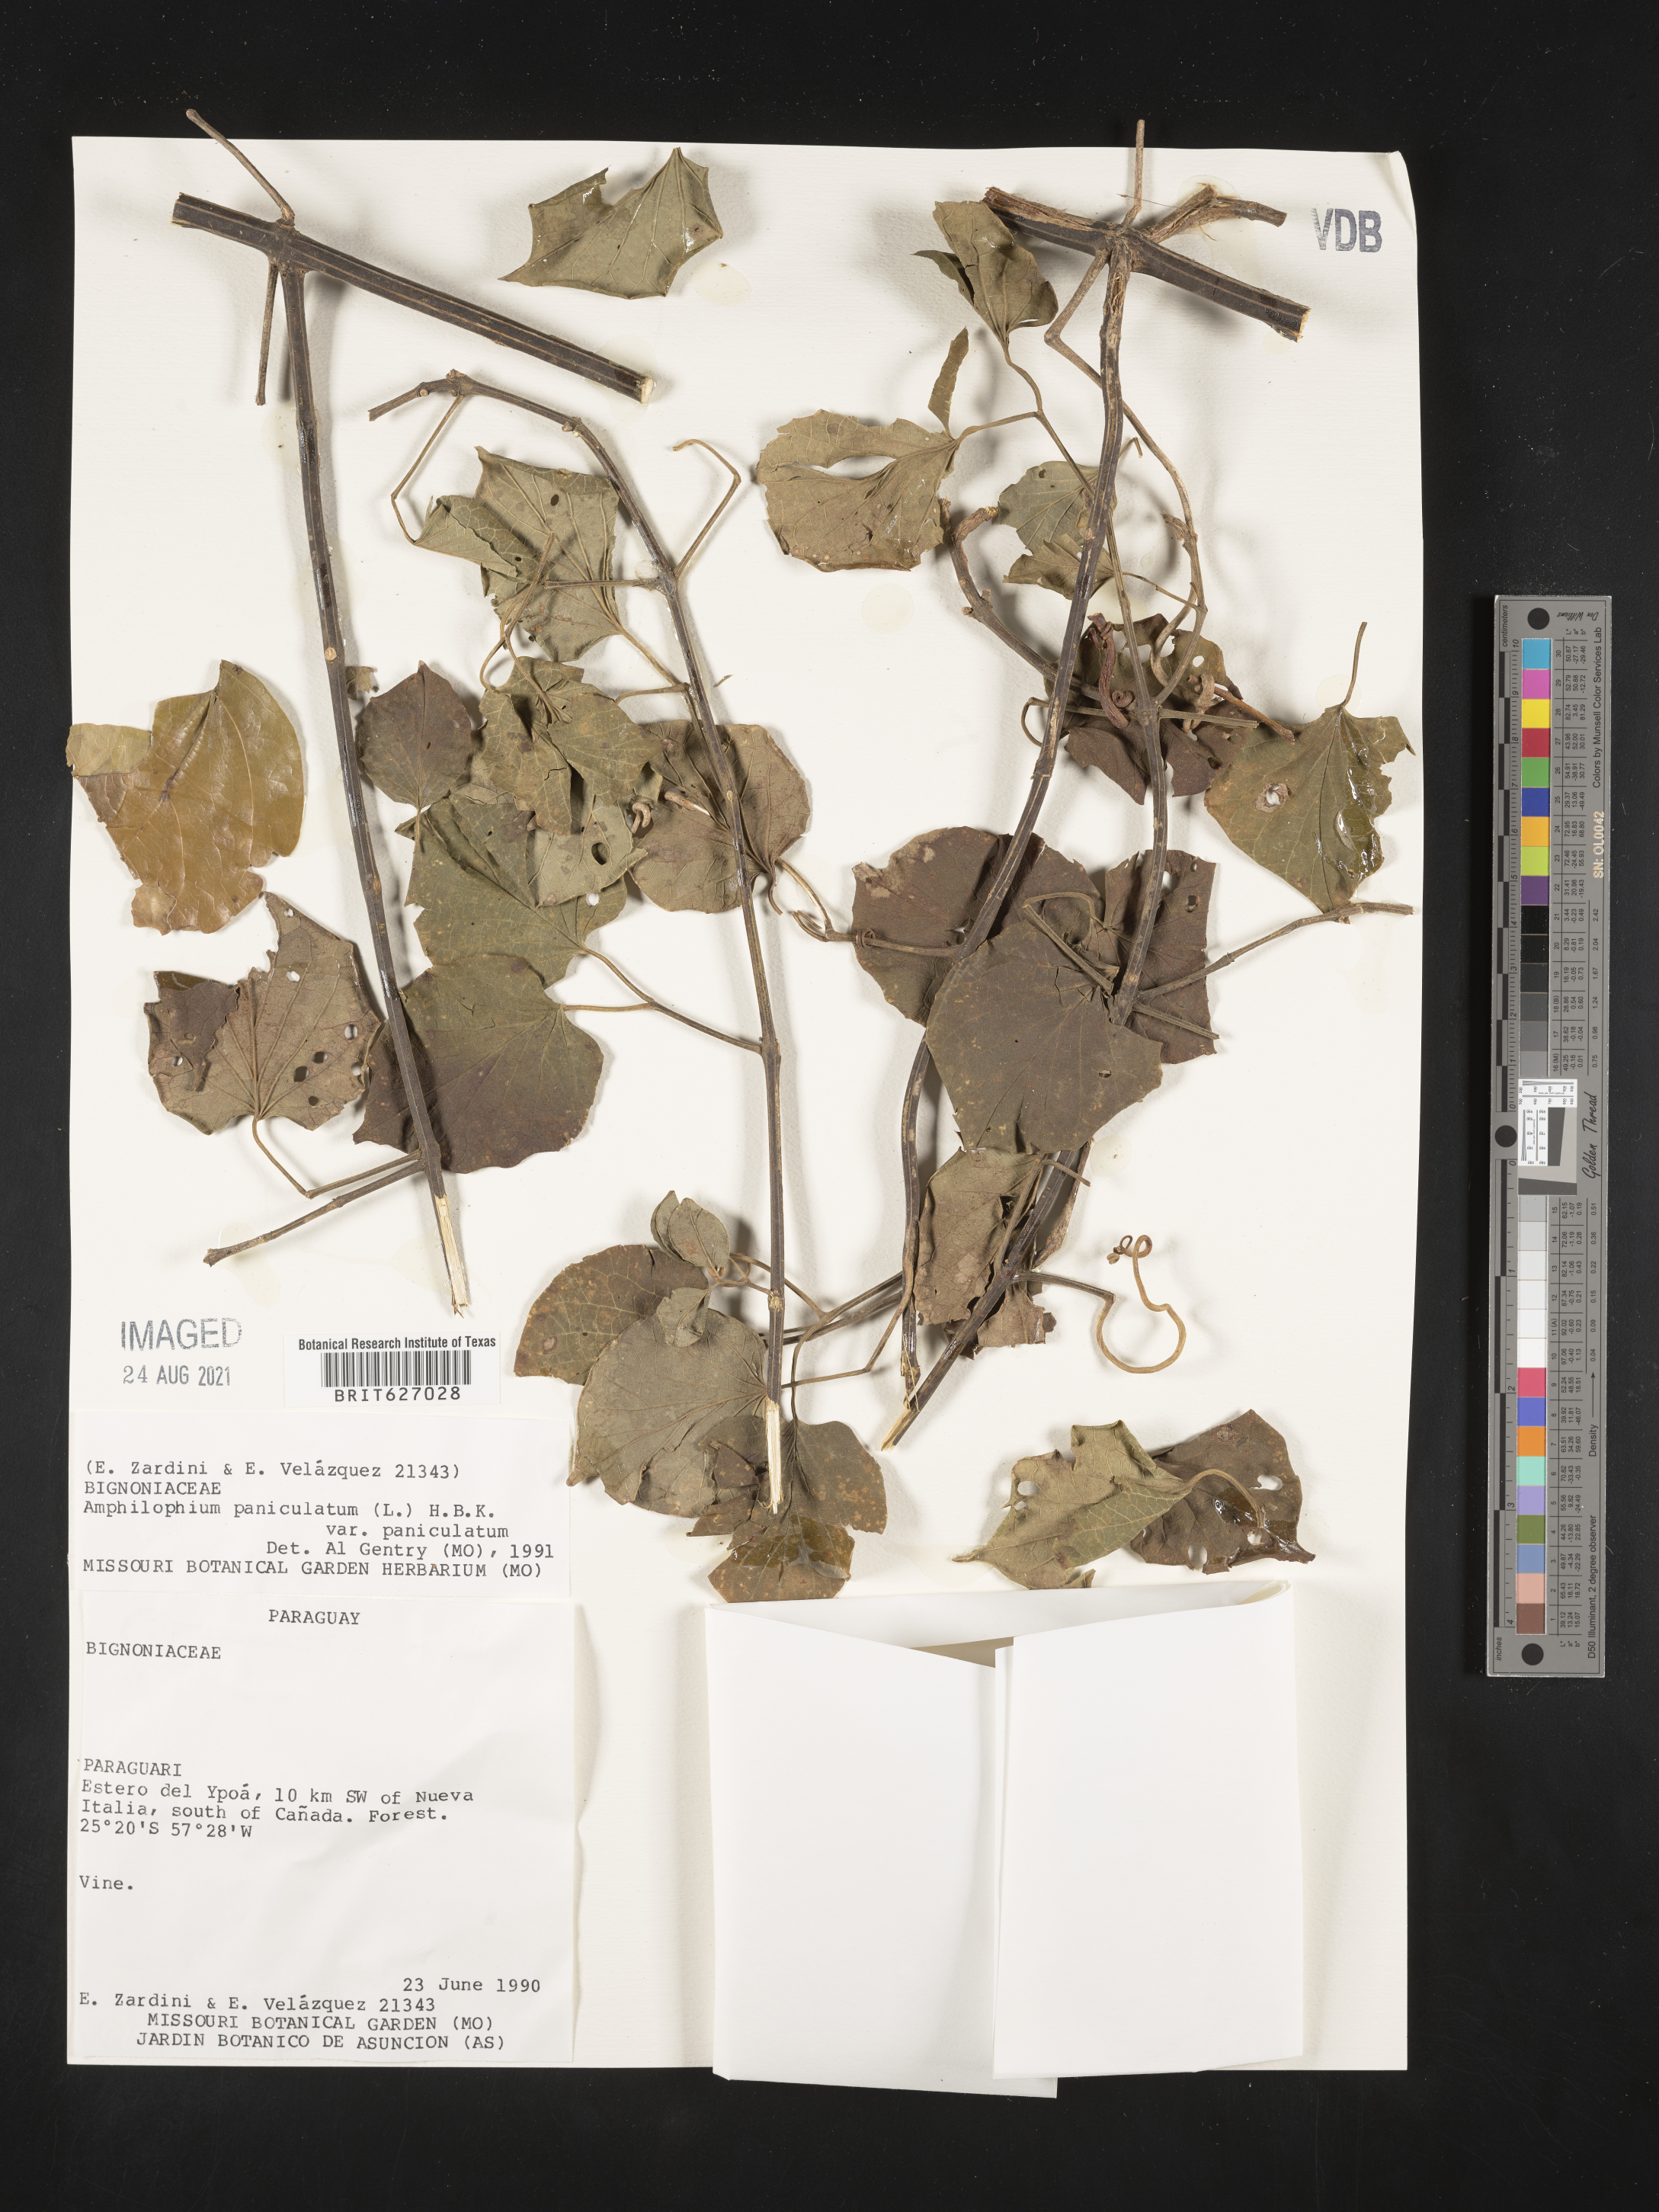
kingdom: Plantae
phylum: Tracheophyta
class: Magnoliopsida
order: Lamiales
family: Bignoniaceae
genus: Amphilophium
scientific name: Amphilophium paniculatum
